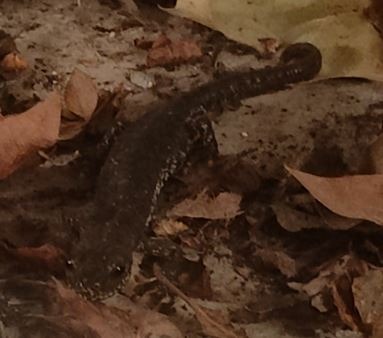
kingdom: Animalia
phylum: Chordata
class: Amphibia
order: Caudata
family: Salamandridae
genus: Triturus
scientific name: Triturus cristatus
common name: Stor vandsalamander
